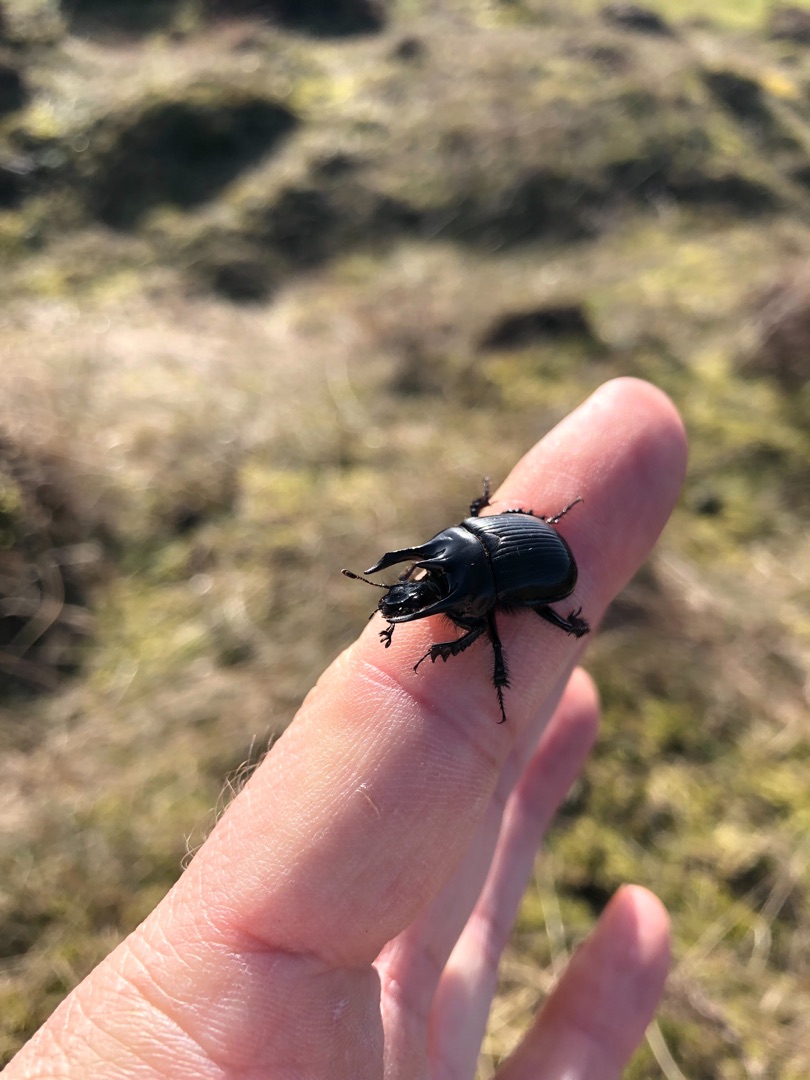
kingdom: Animalia
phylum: Arthropoda
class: Insecta
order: Coleoptera
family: Geotrupidae
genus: Typhaeus
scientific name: Typhaeus typhoeus
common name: Trehornet skarnbasse
